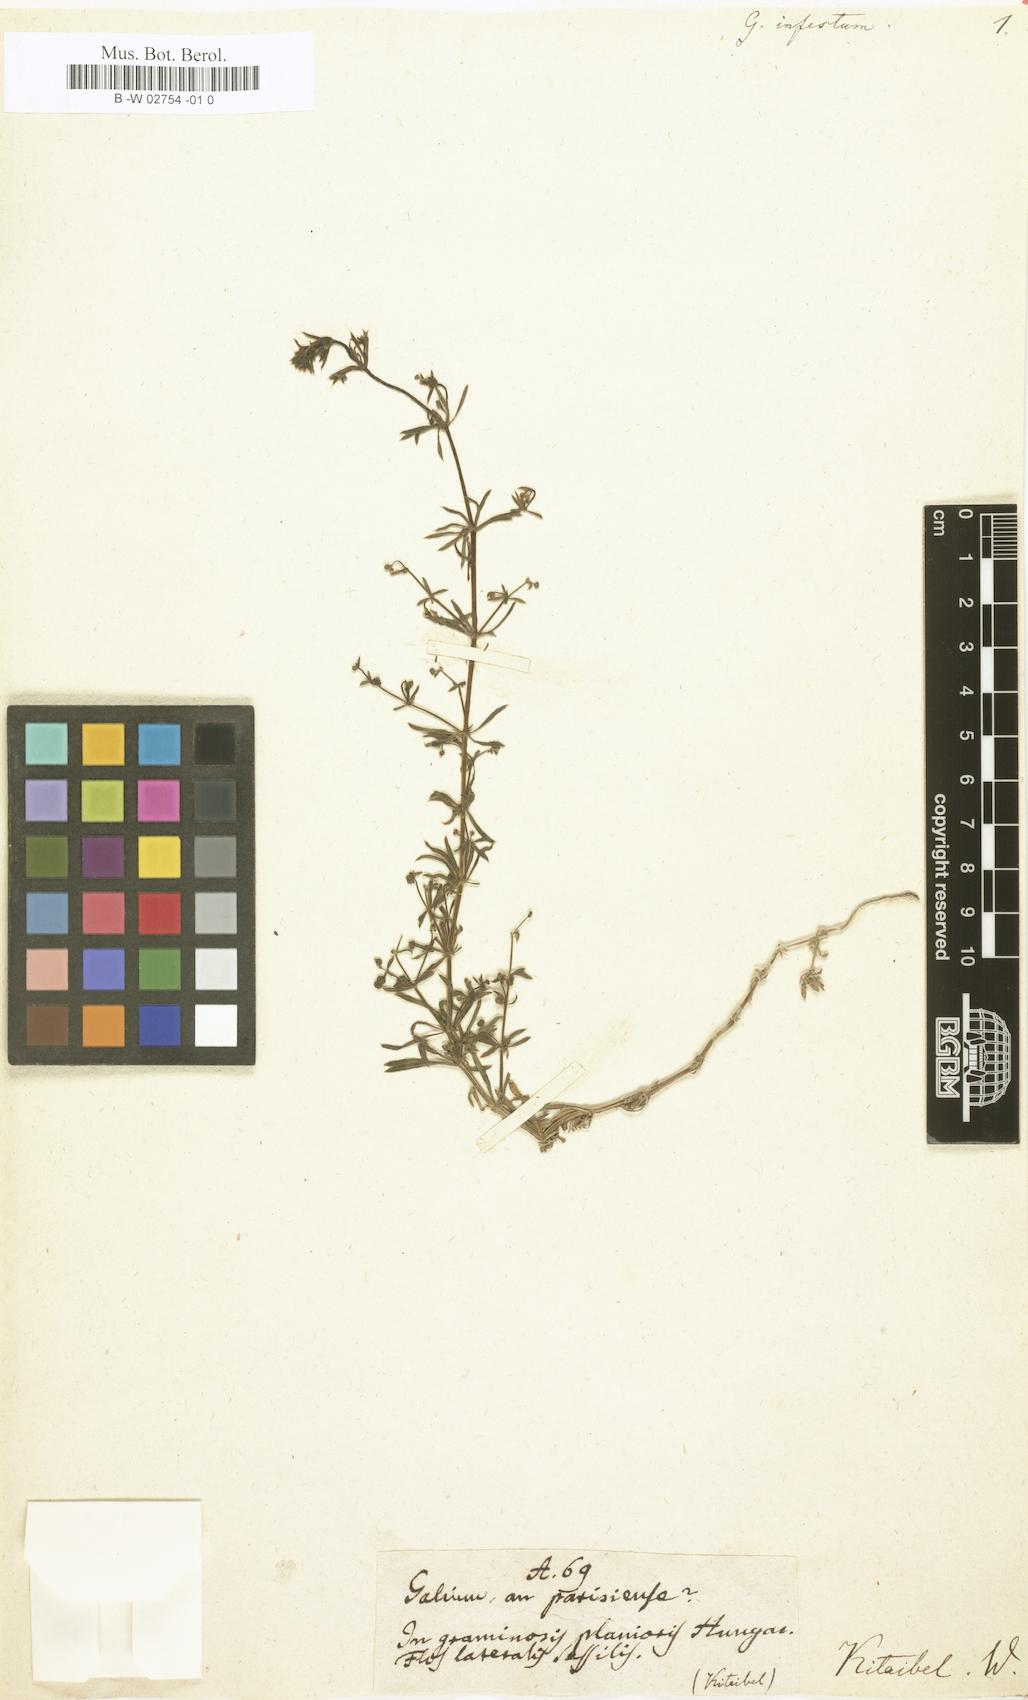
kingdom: Plantae
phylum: Tracheophyta
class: Magnoliopsida
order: Gentianales
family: Rubiaceae
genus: Galium
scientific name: Galium spurium
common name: False cleavers
